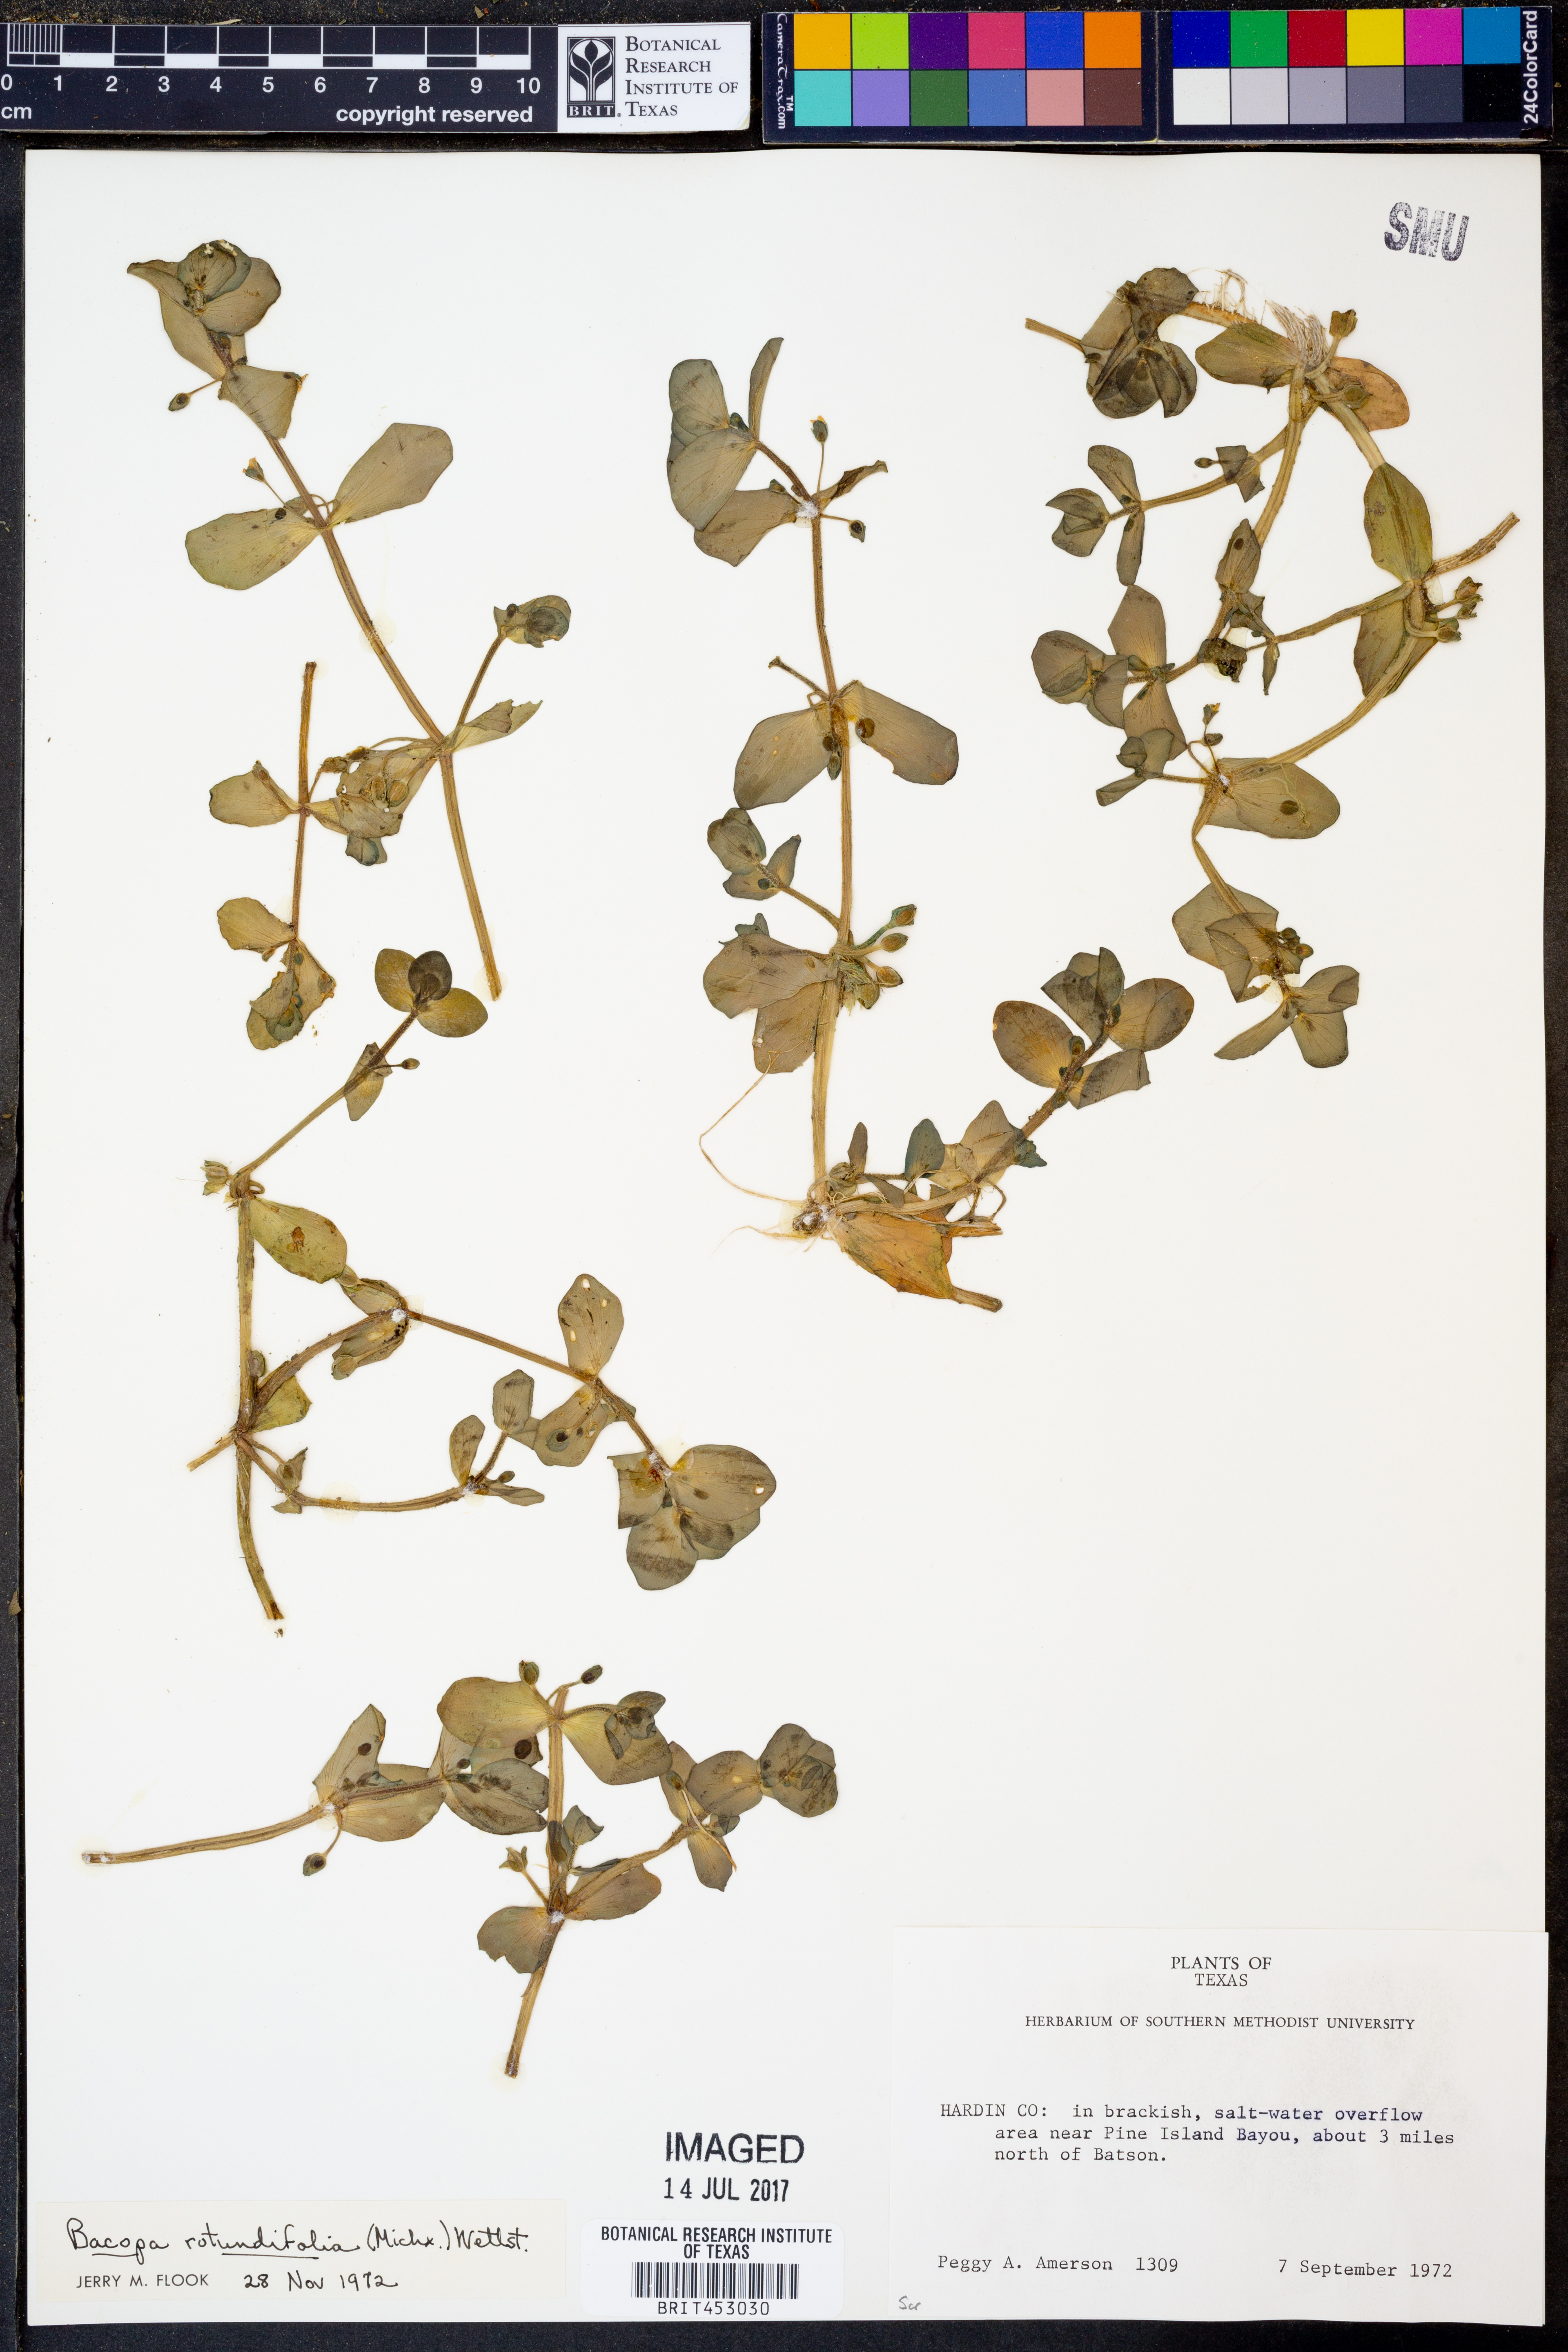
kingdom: Plantae
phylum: Tracheophyta
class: Magnoliopsida
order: Lamiales
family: Plantaginaceae
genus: Bacopa
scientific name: Bacopa rotundifolia
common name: Disc water hyssop
